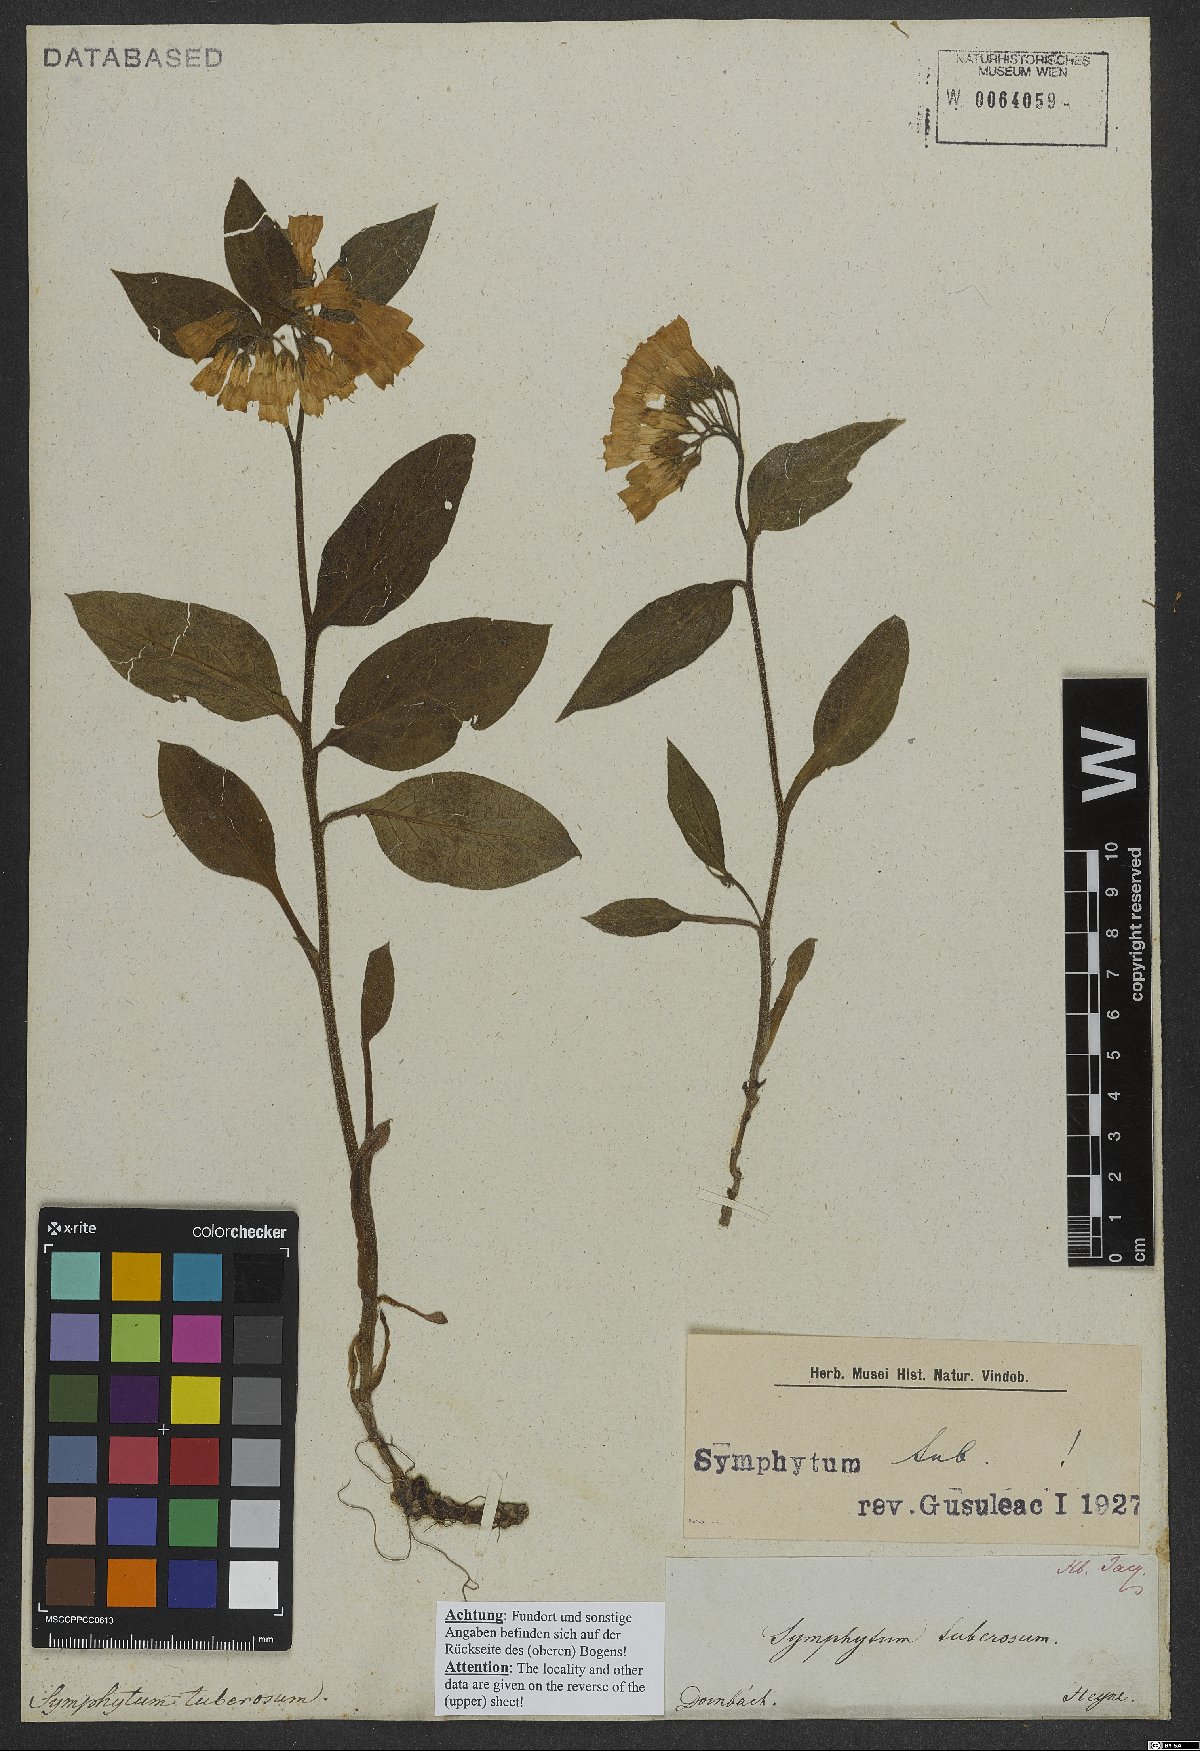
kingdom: Plantae
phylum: Tracheophyta
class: Magnoliopsida
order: Boraginales
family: Boraginaceae
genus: Symphytum
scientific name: Symphytum tuberosum
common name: Tuberous comfrey
